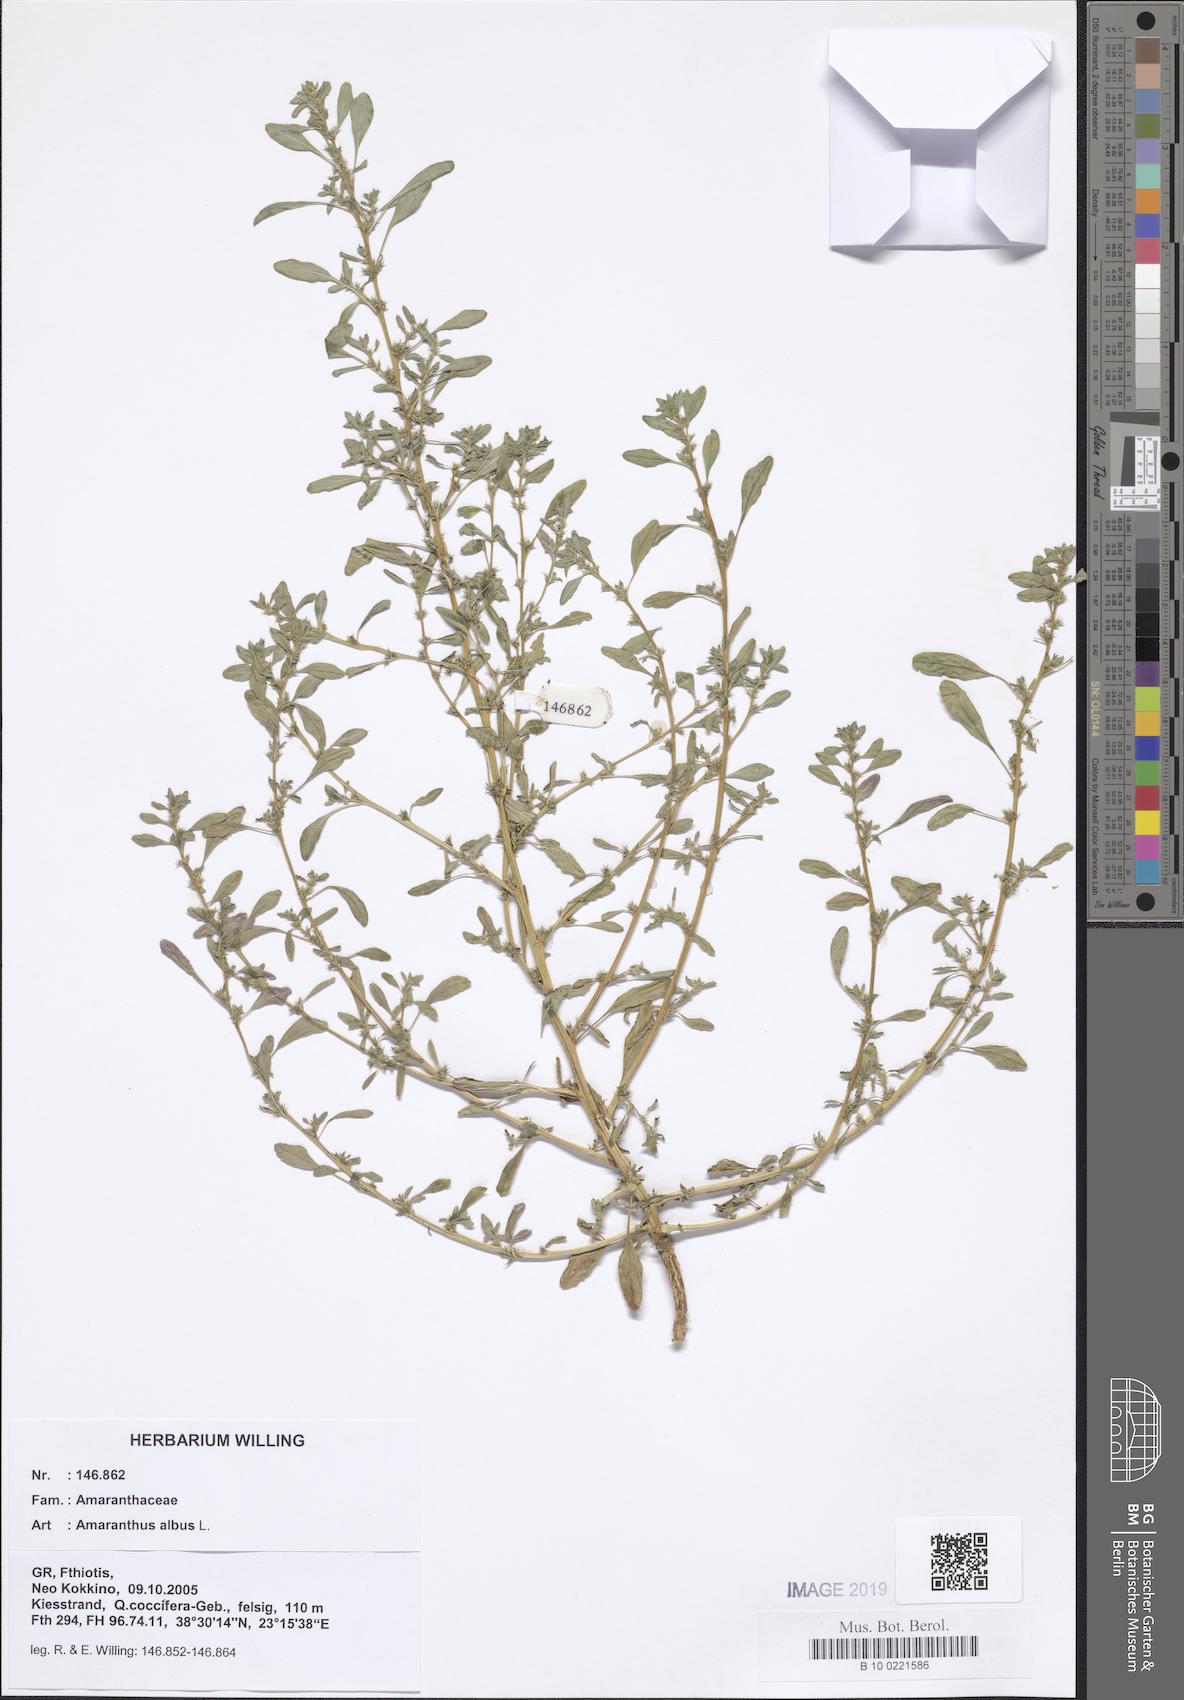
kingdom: Plantae
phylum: Tracheophyta
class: Magnoliopsida
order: Caryophyllales
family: Amaranthaceae
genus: Amaranthus
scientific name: Amaranthus albus
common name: White pigweed
